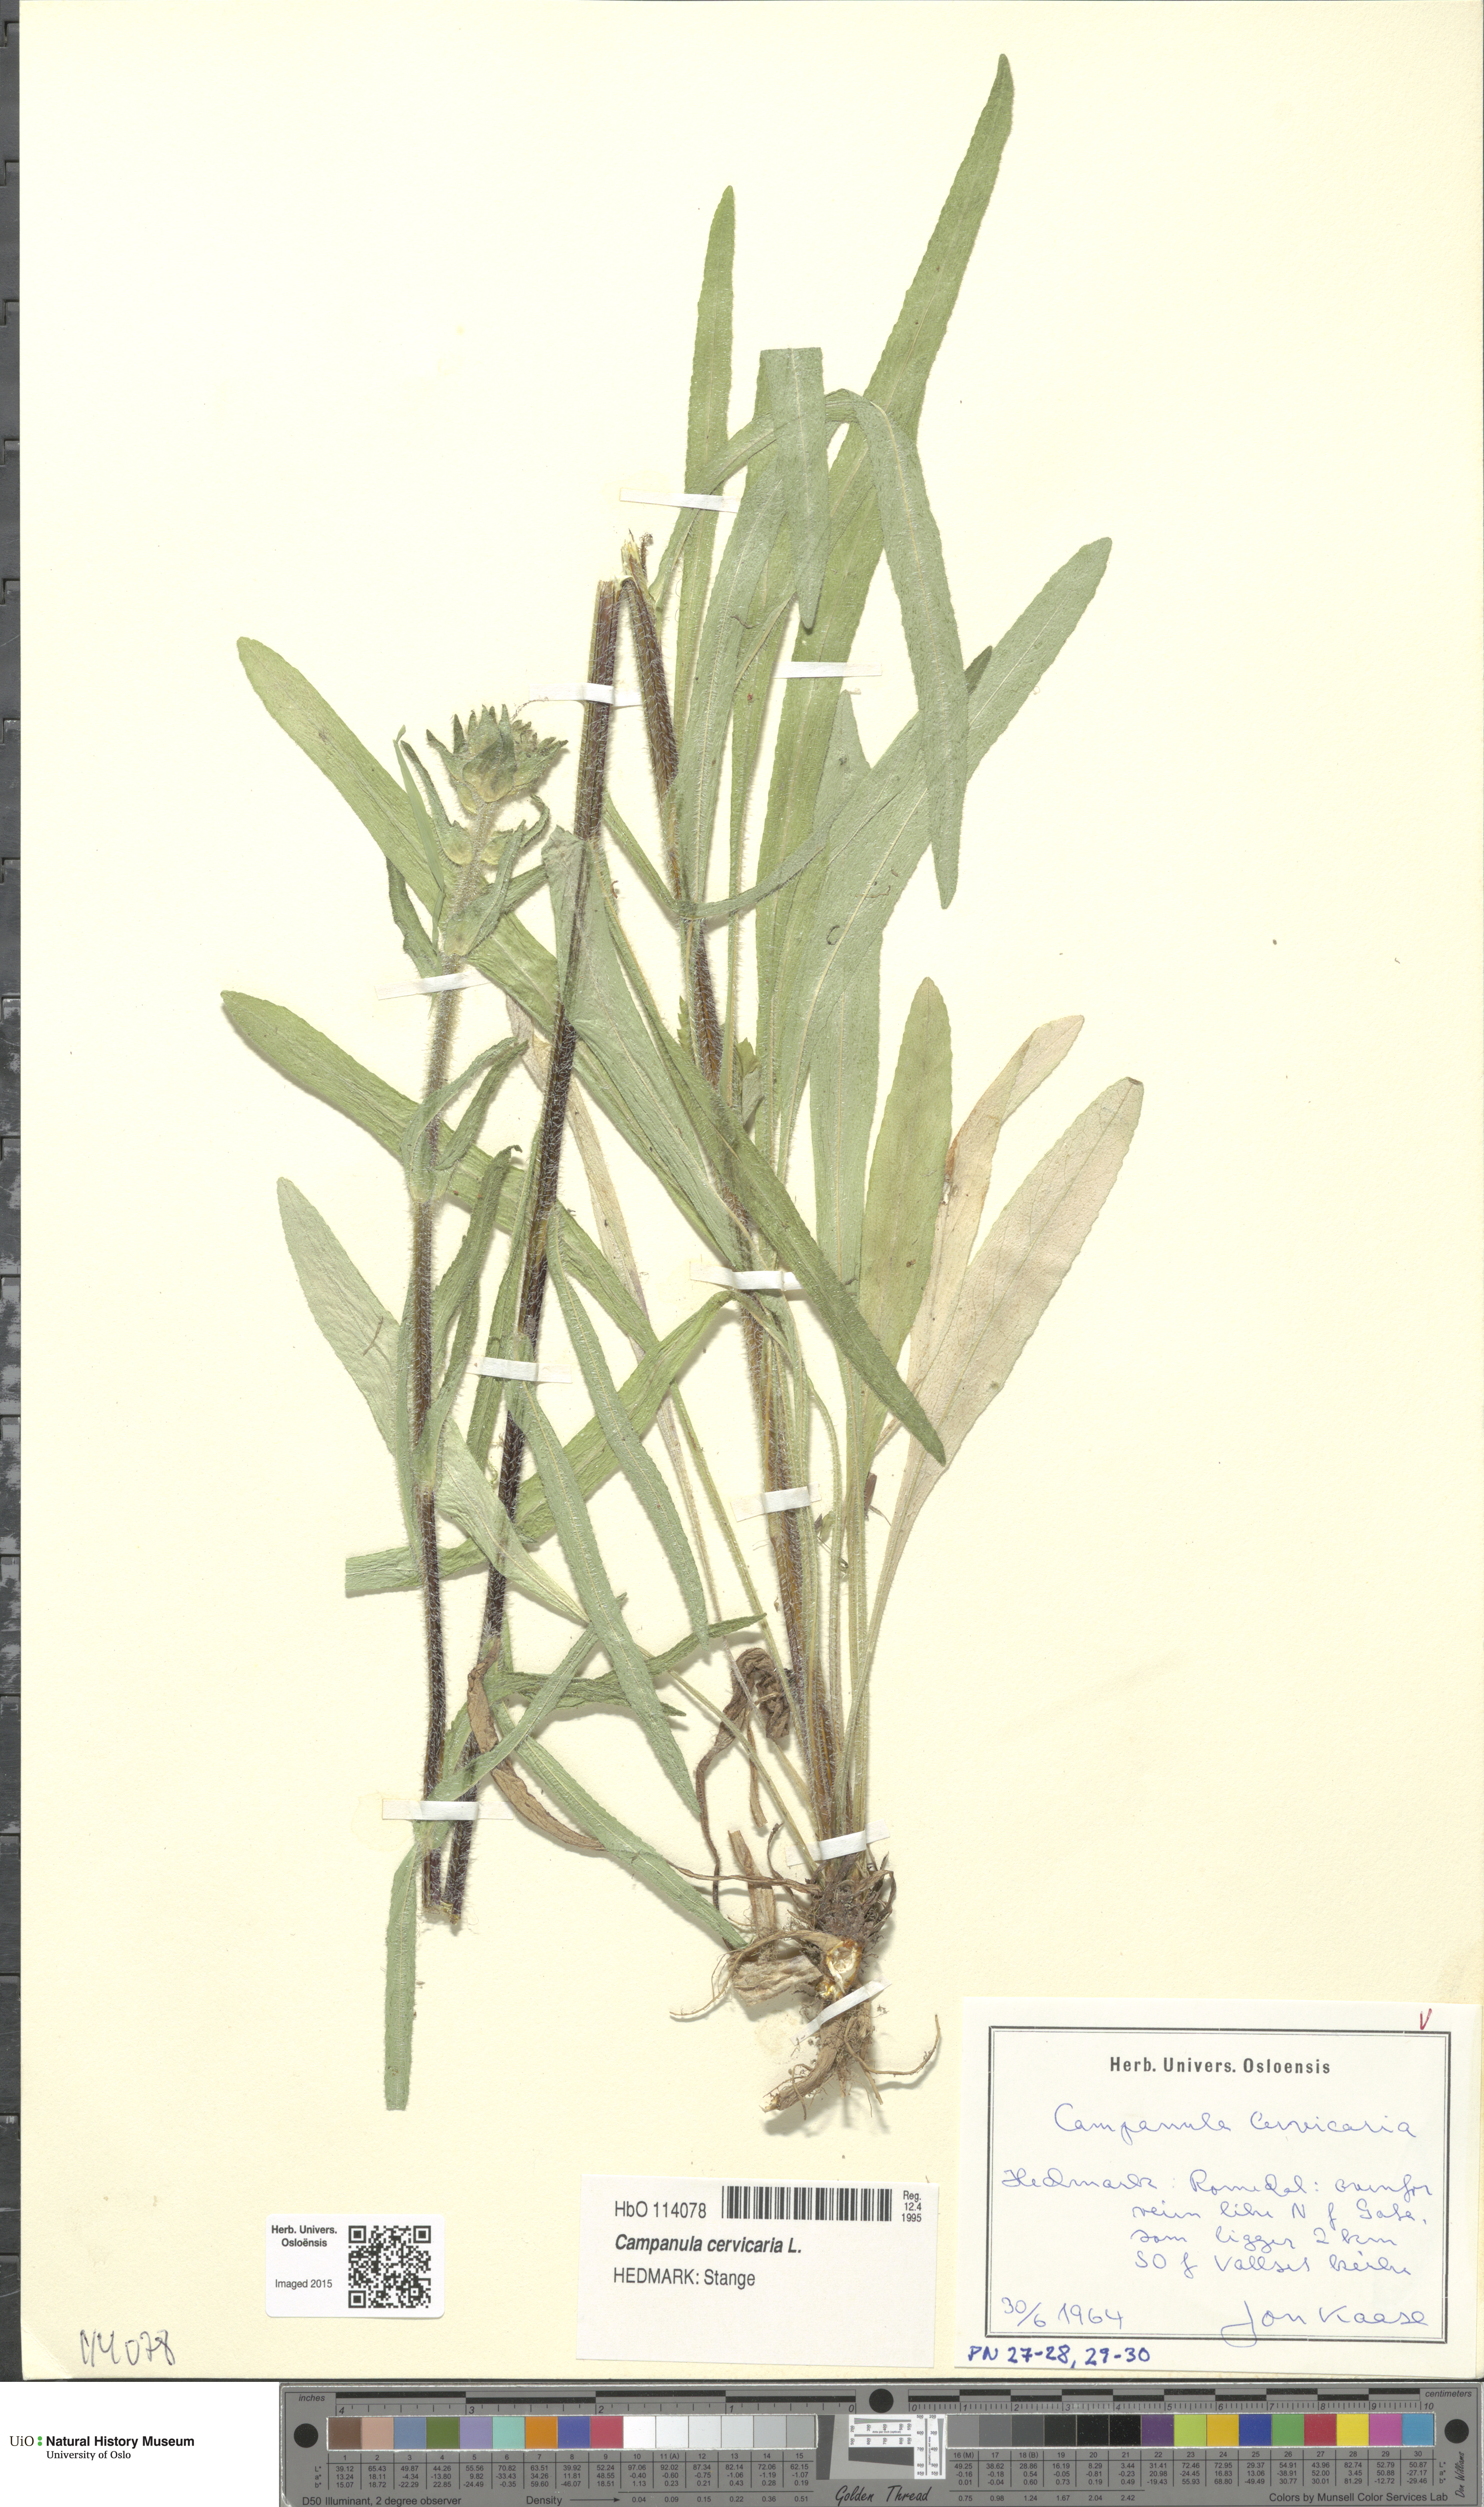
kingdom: Plantae
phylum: Tracheophyta
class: Magnoliopsida
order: Asterales
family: Campanulaceae
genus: Campanula
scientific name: Campanula cervicaria
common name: Bristly bellflower
